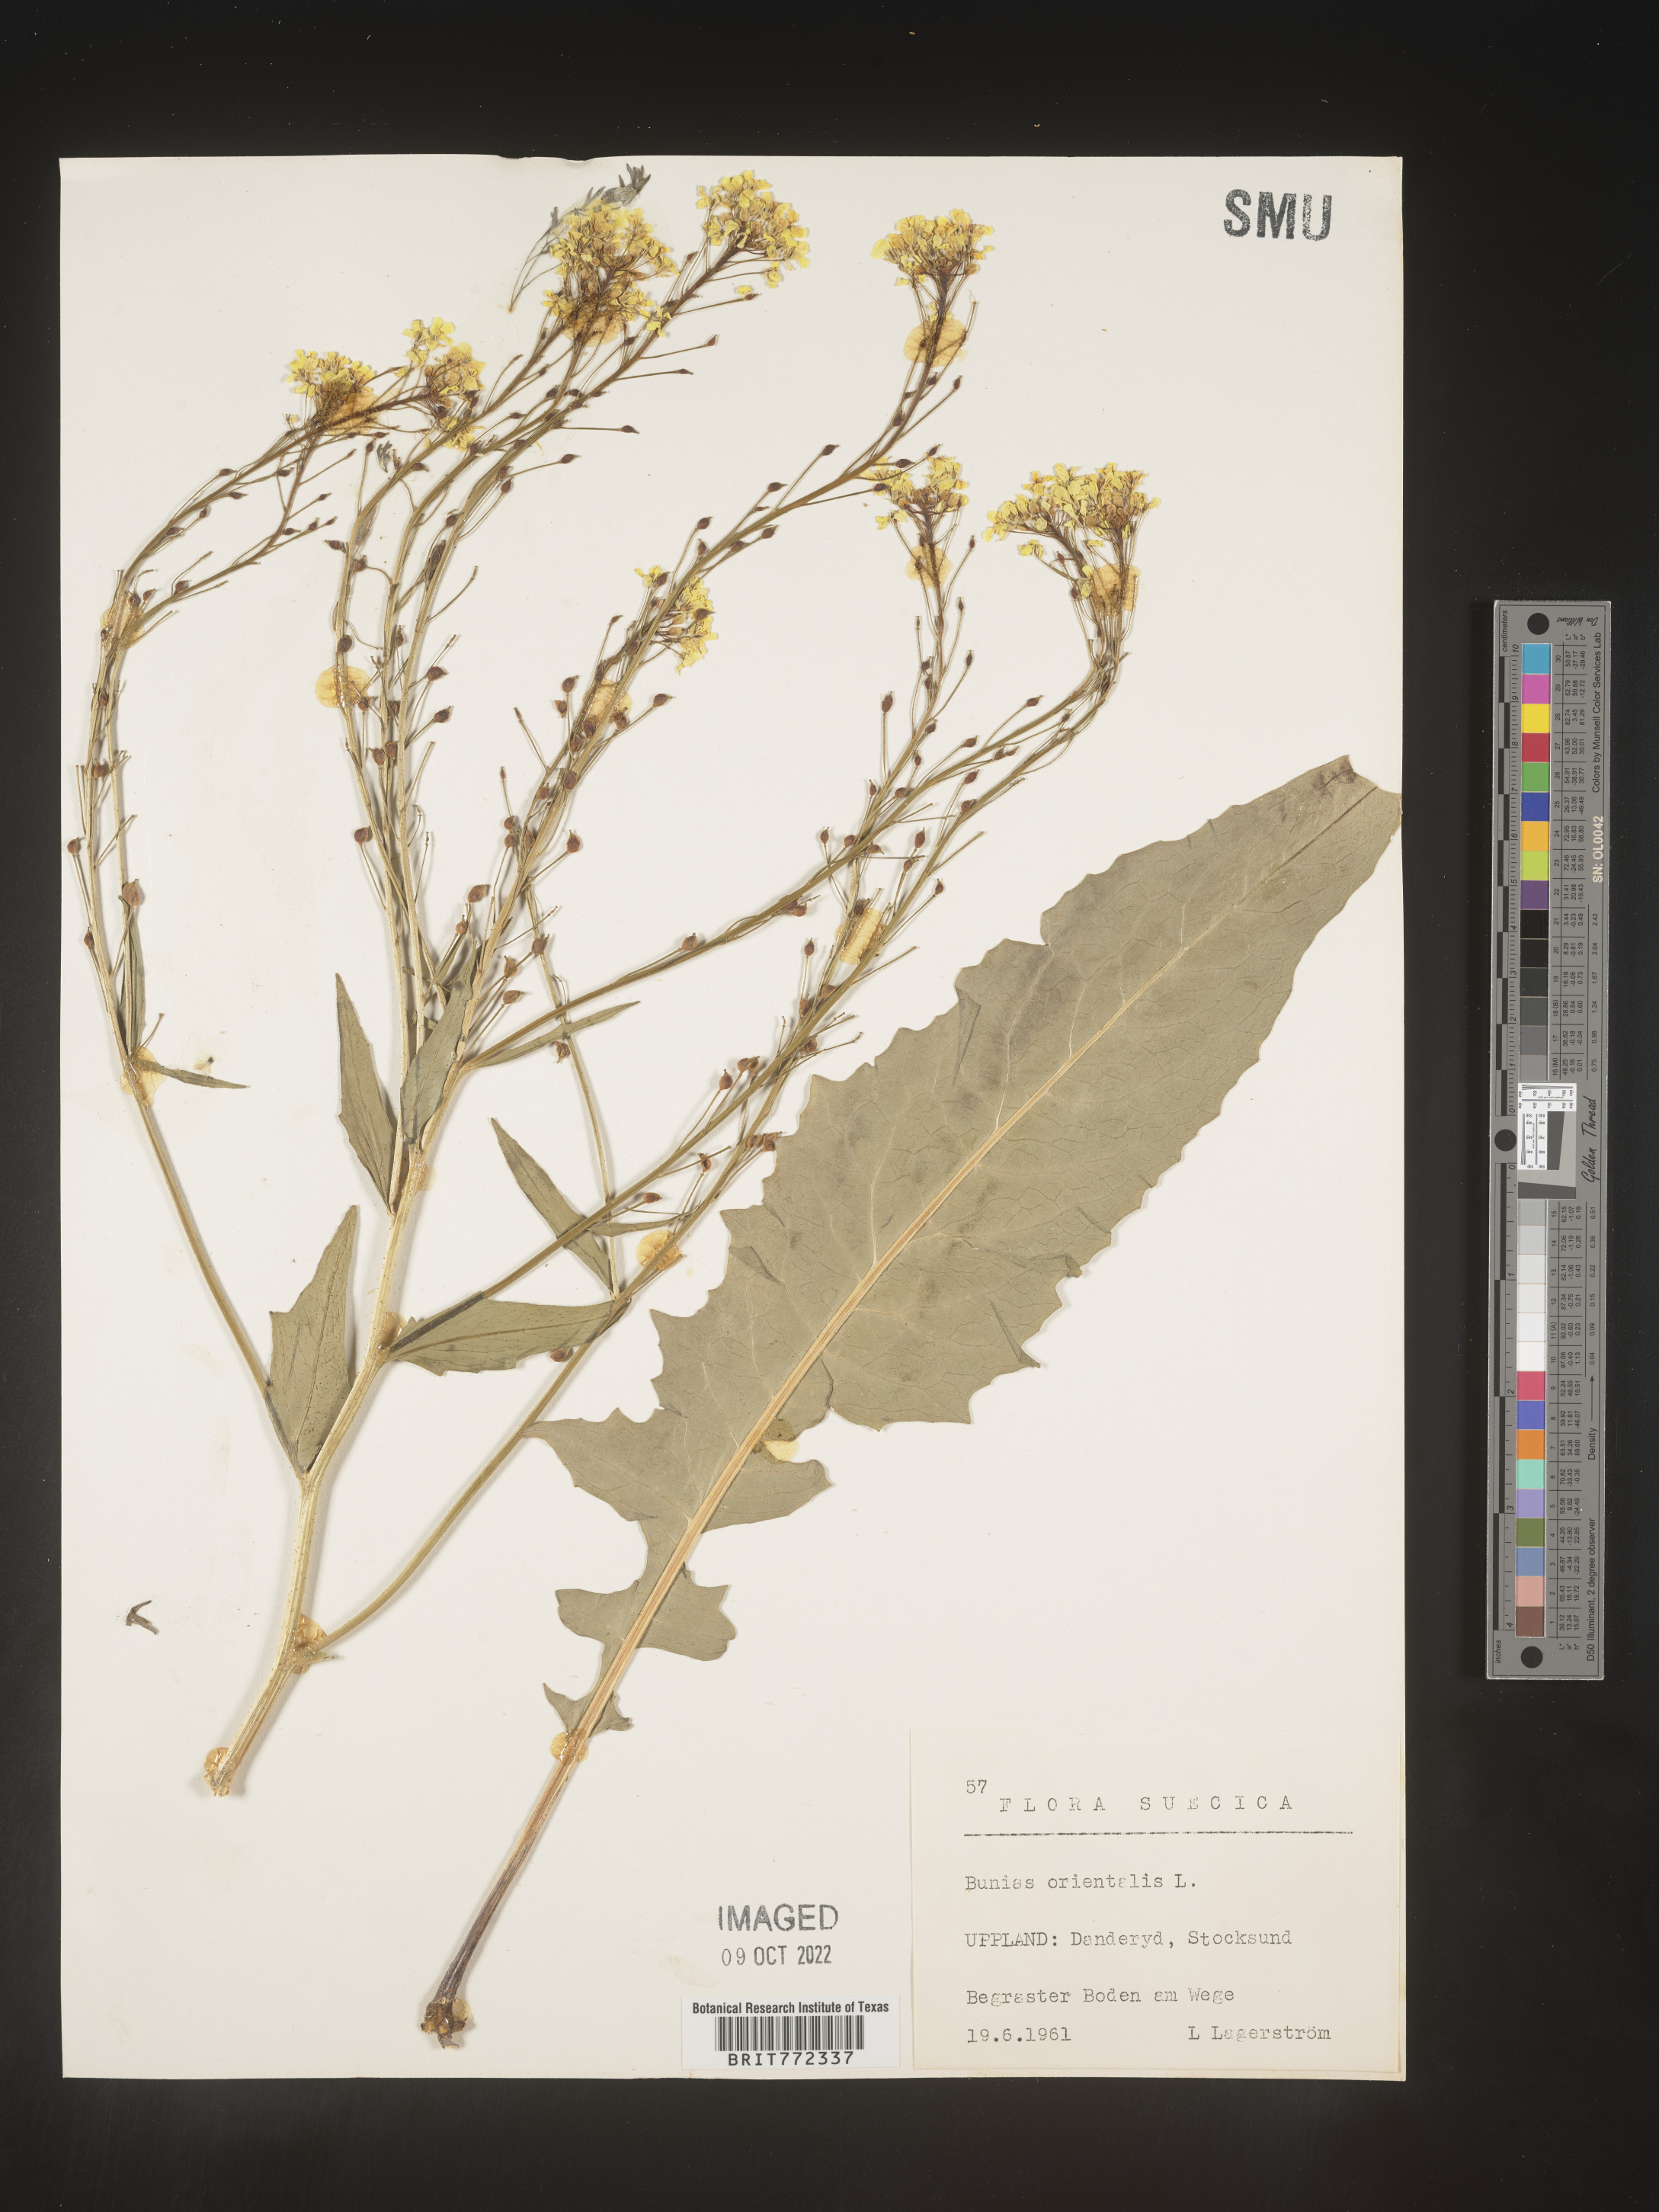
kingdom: Plantae
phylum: Tracheophyta
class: Magnoliopsida
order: Brassicales
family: Brassicaceae
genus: Bunias
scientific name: Bunias
